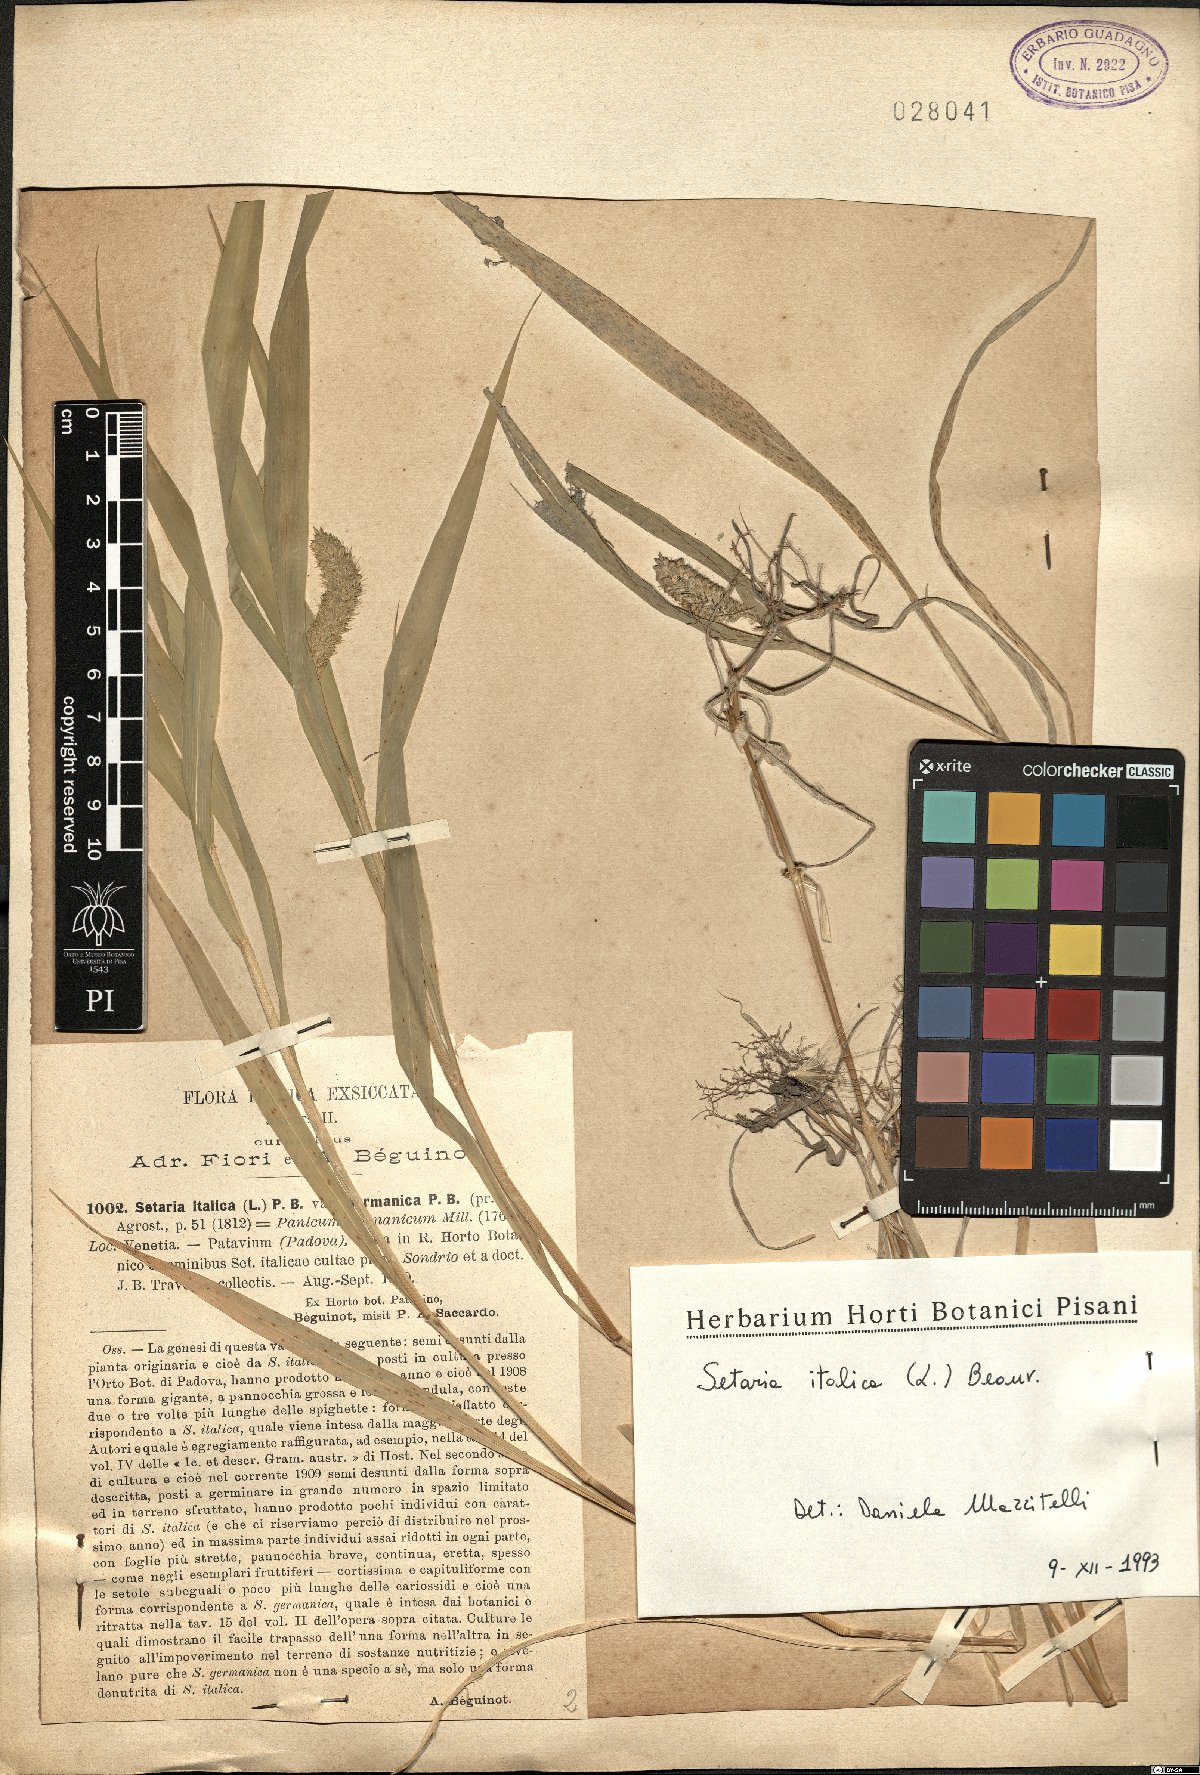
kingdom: Plantae
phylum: Tracheophyta
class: Liliopsida
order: Poales
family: Poaceae
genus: Setaria
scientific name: Setaria italica
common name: Foxtail bristle-grass
